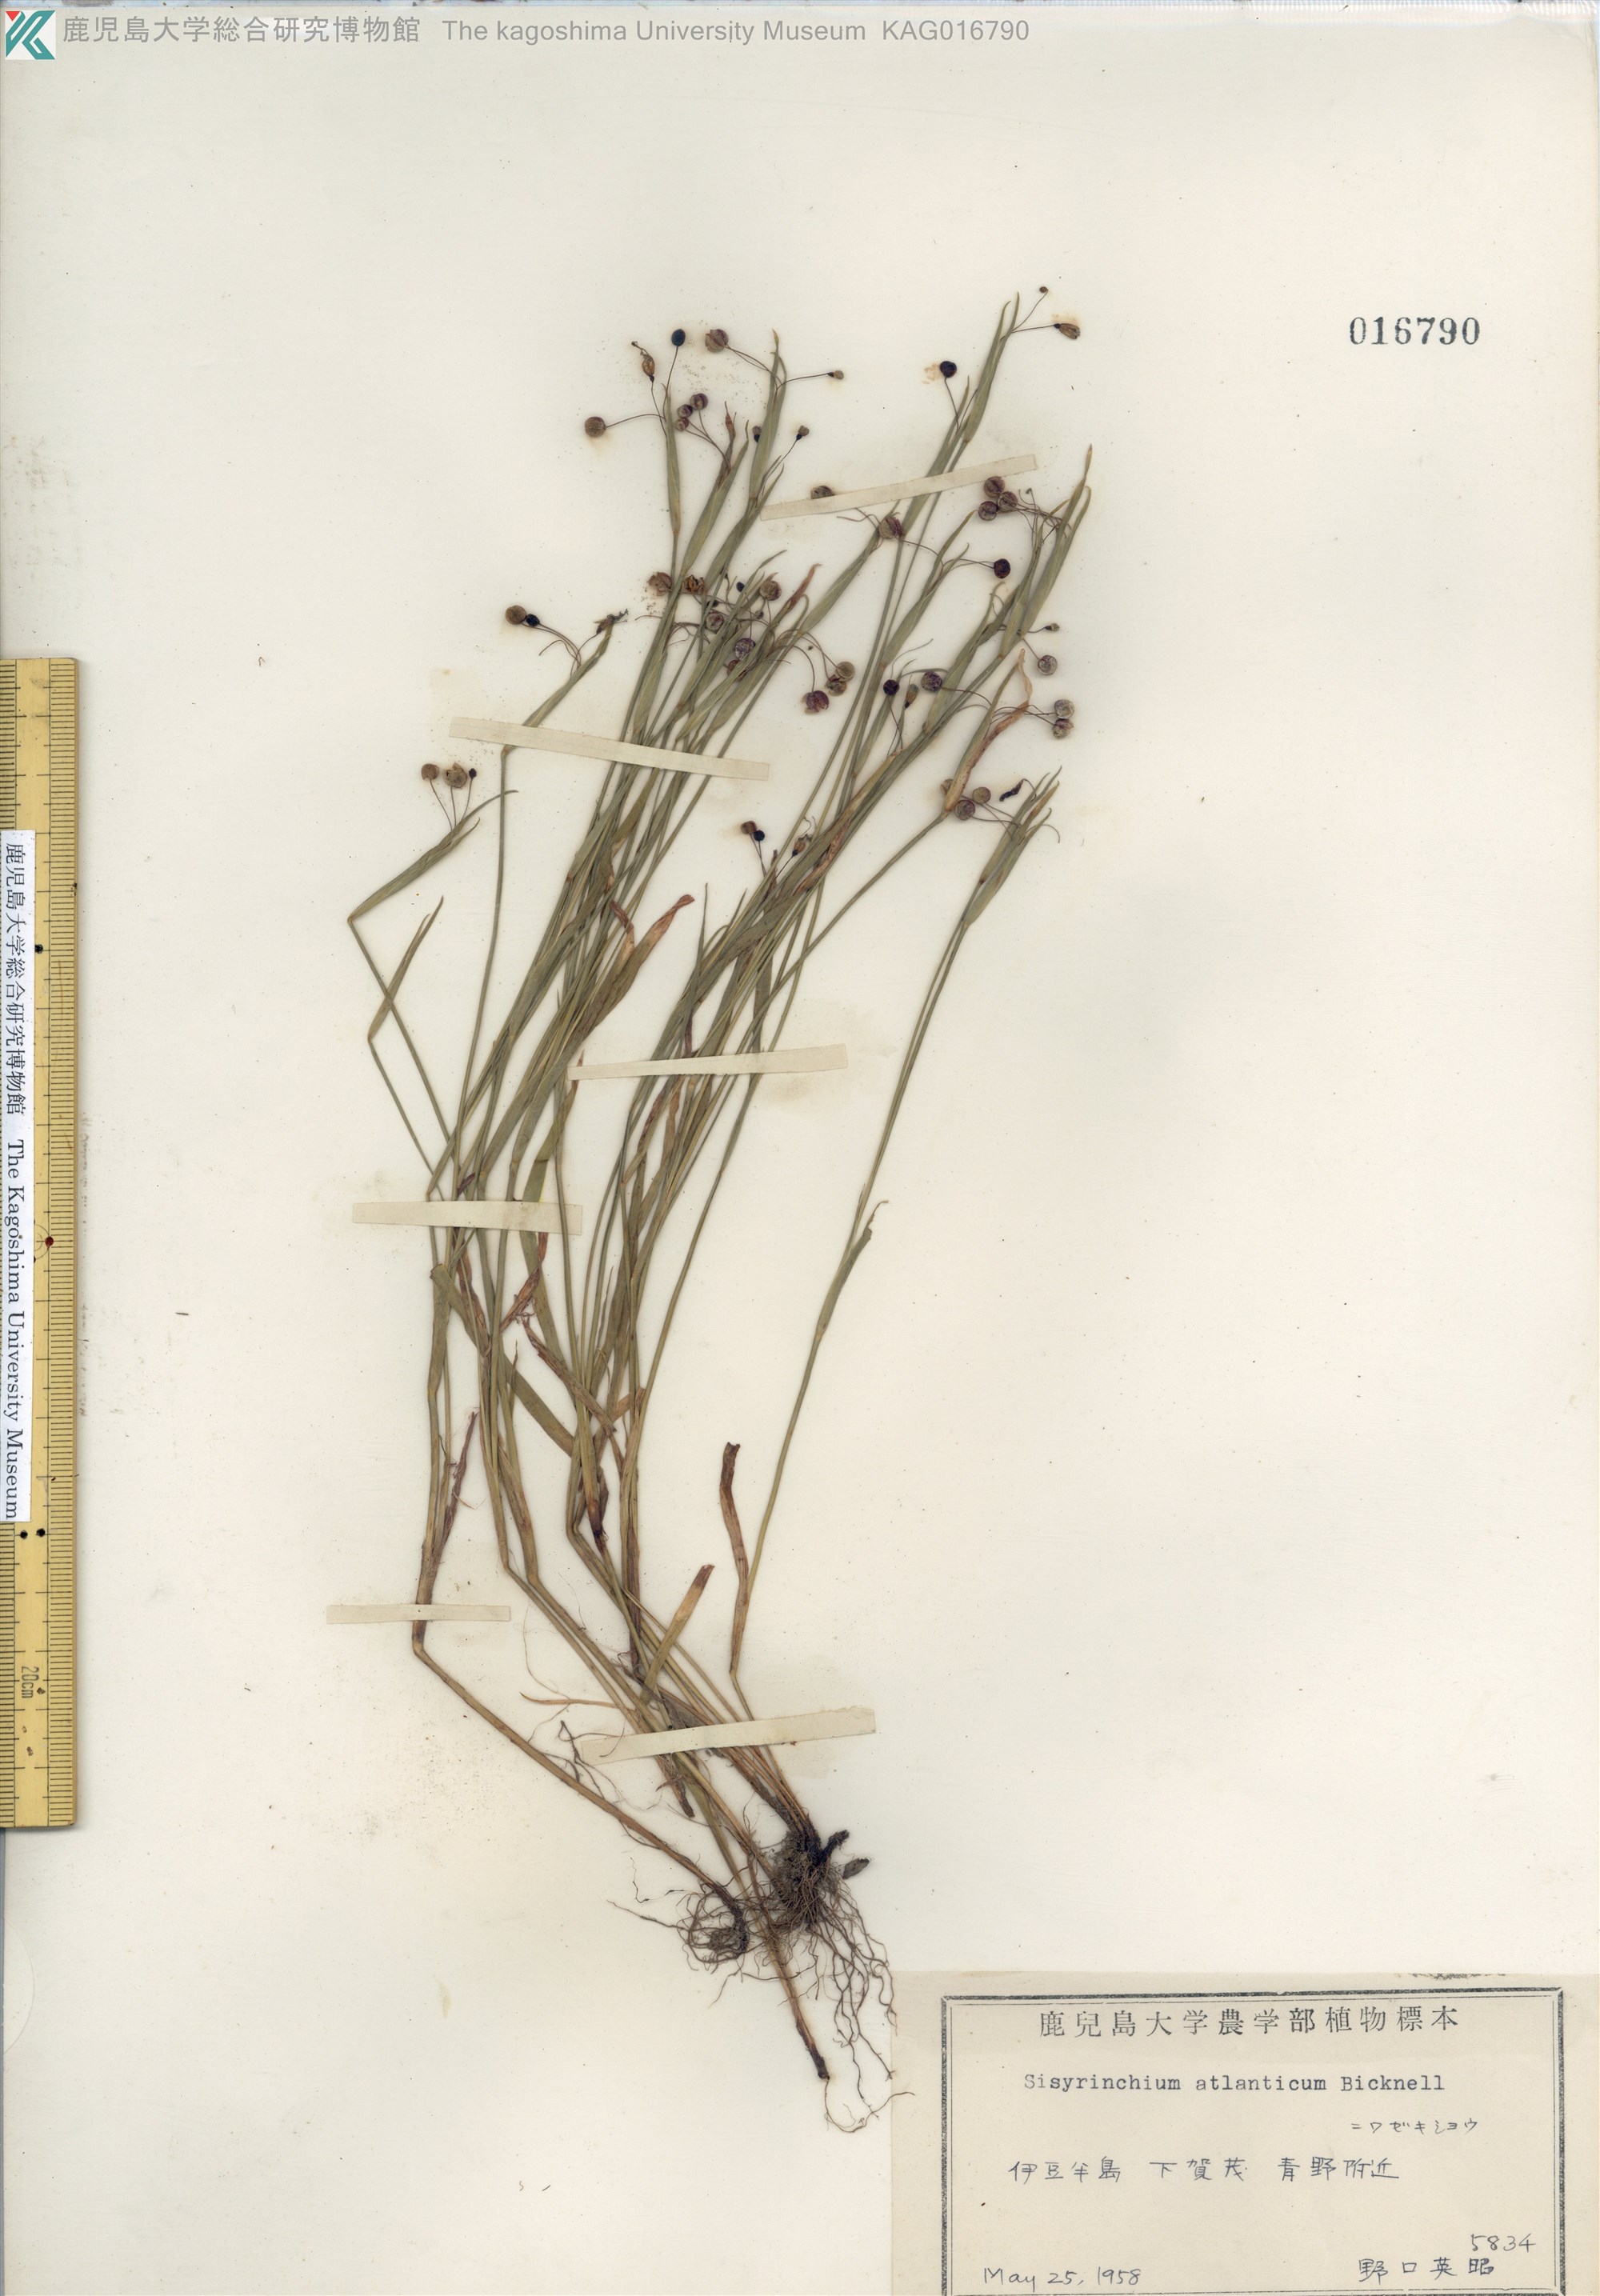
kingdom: Plantae
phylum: Tracheophyta
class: Liliopsida
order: Asparagales
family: Iridaceae
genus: Sisyrinchium
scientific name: Sisyrinchium rosulatum
